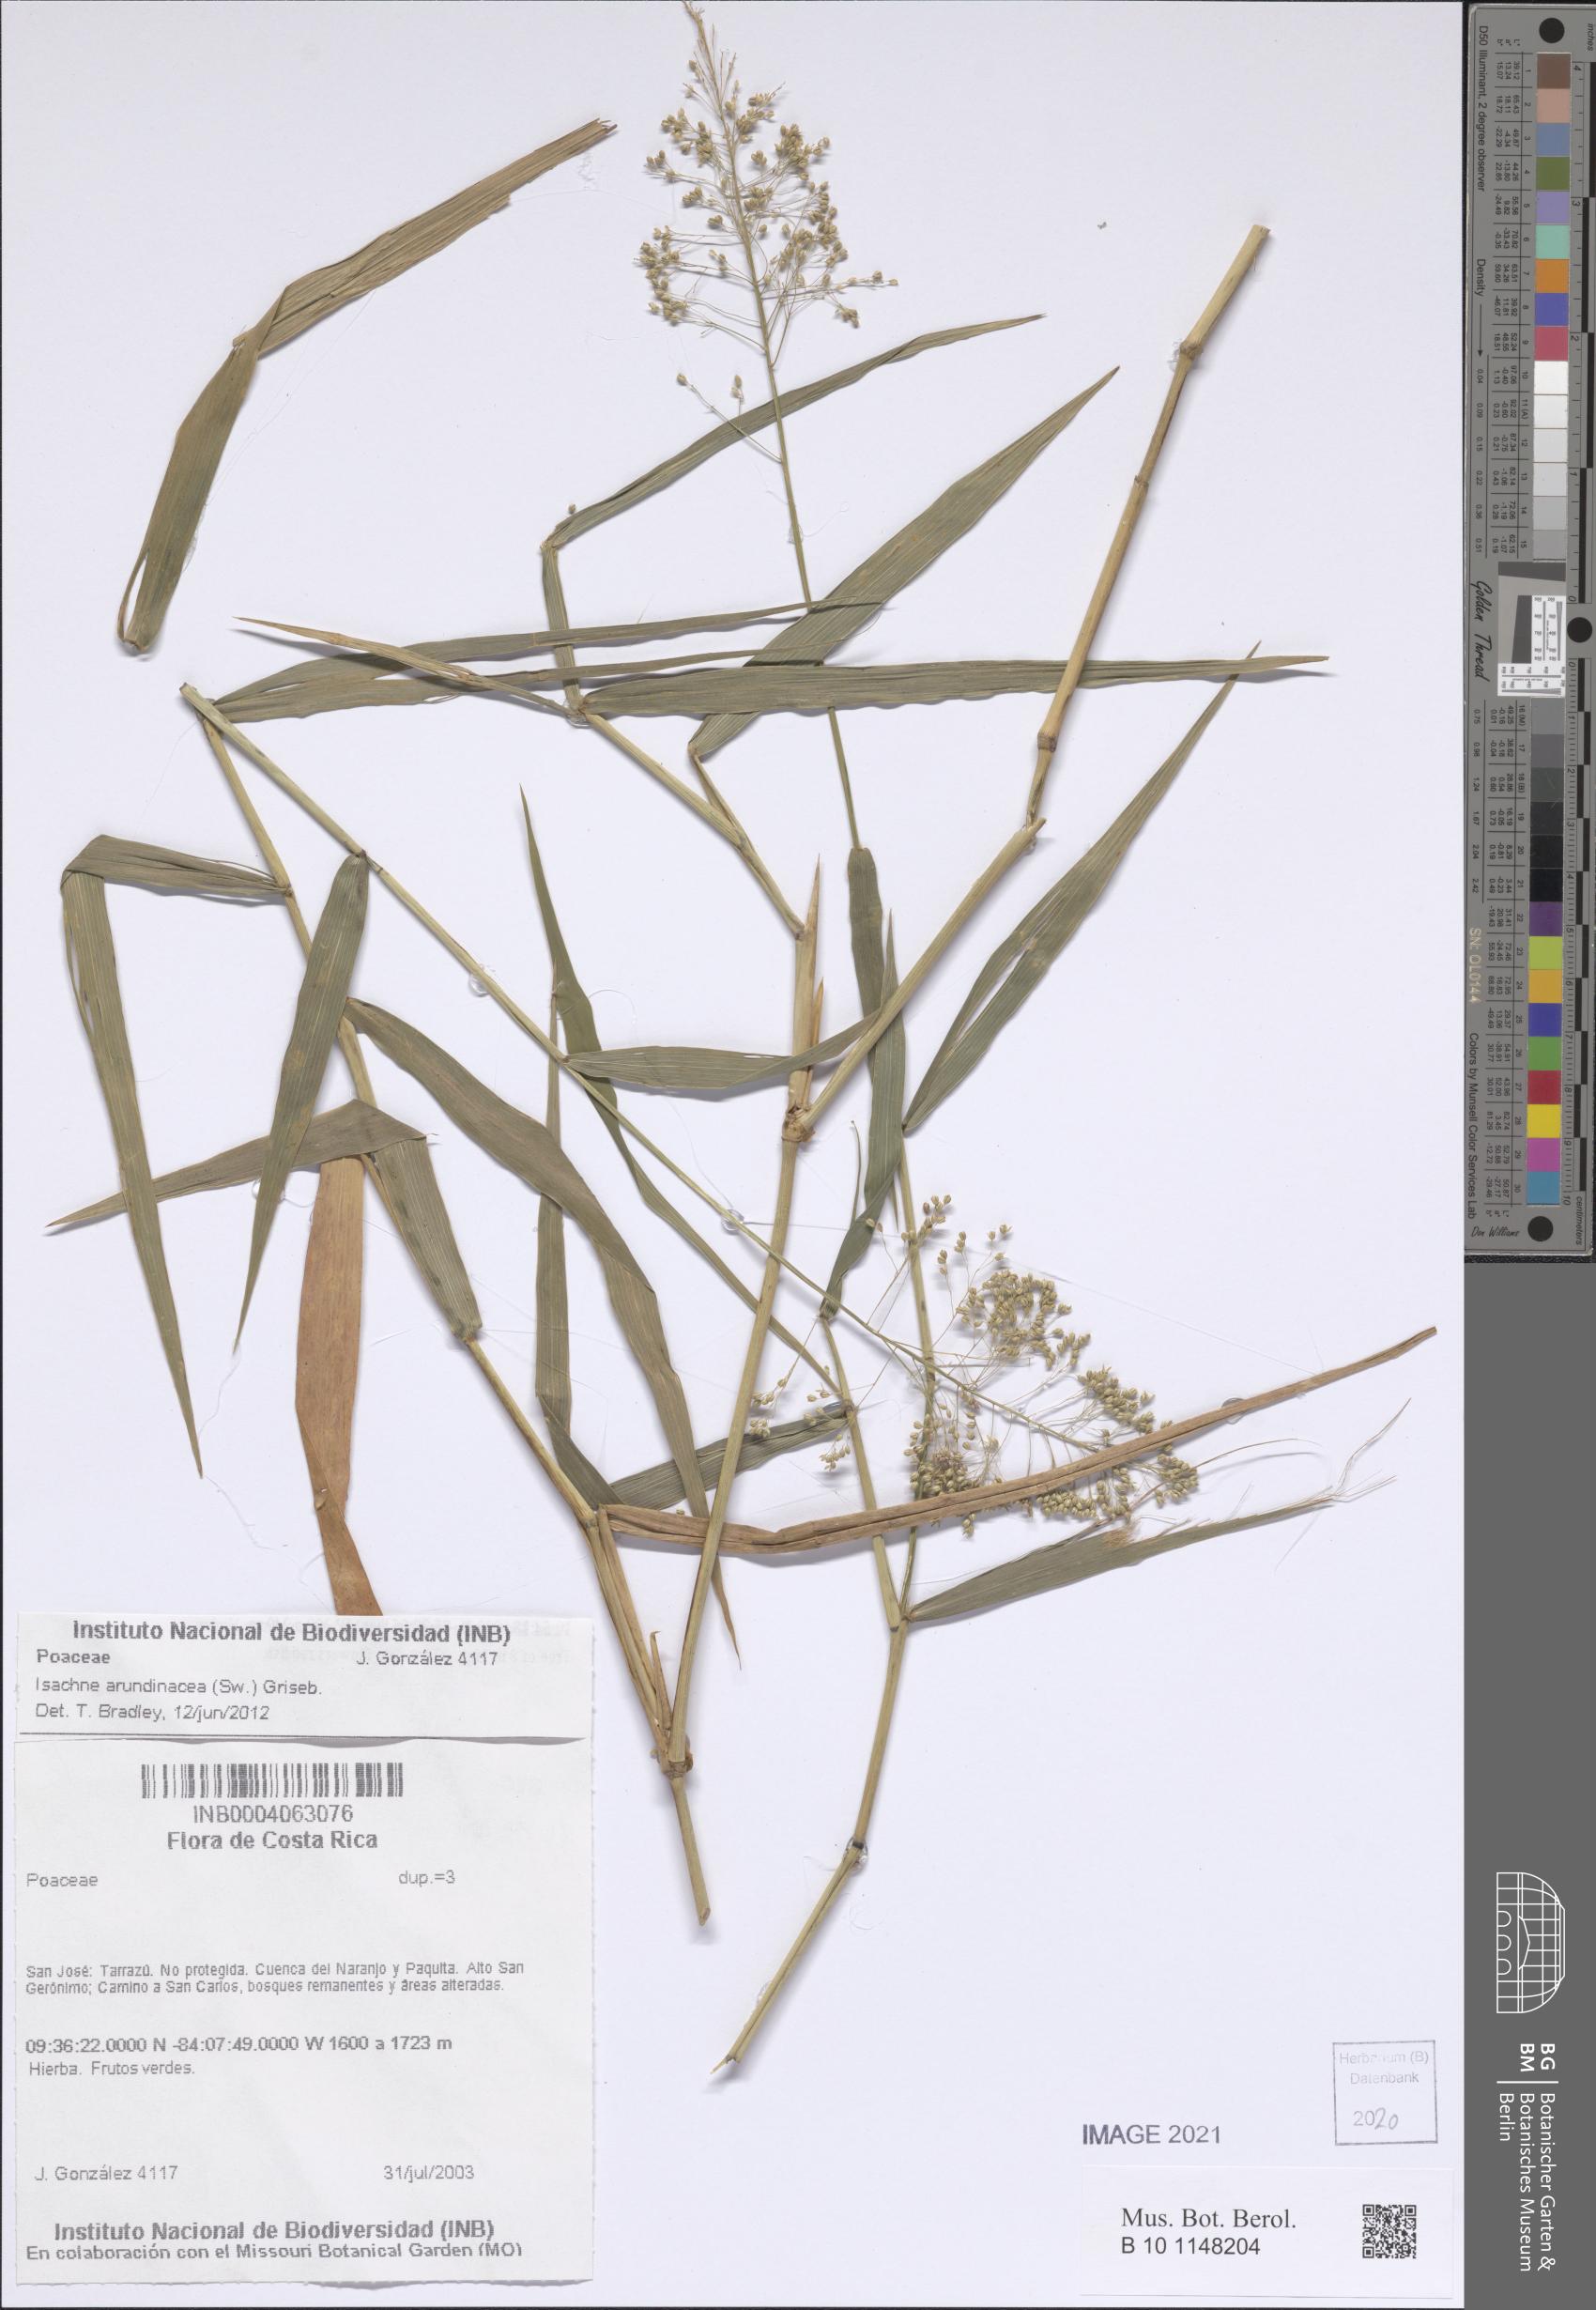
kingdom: Plantae
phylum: Tracheophyta
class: Liliopsida
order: Poales
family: Poaceae
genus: Isachne
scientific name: Isachne arundinacea
